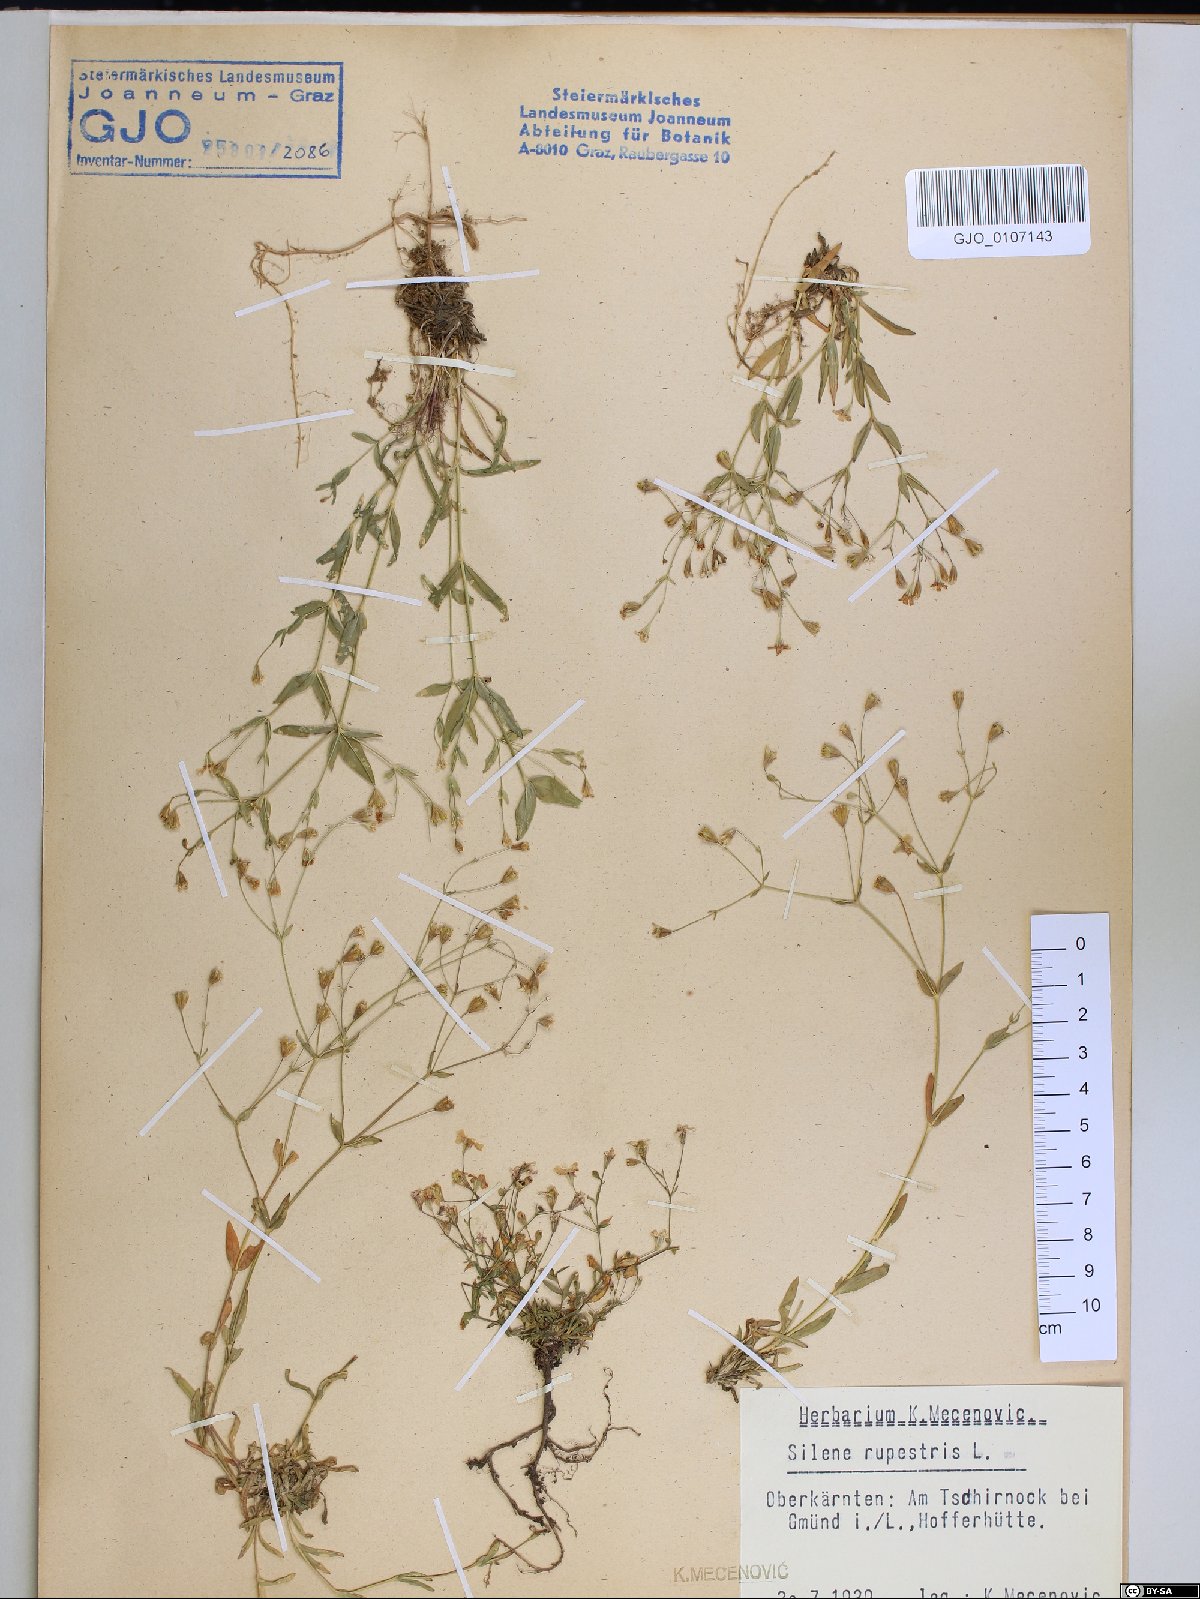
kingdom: Plantae
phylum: Tracheophyta
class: Magnoliopsida
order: Caryophyllales
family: Caryophyllaceae
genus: Atocion
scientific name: Atocion rupestre
